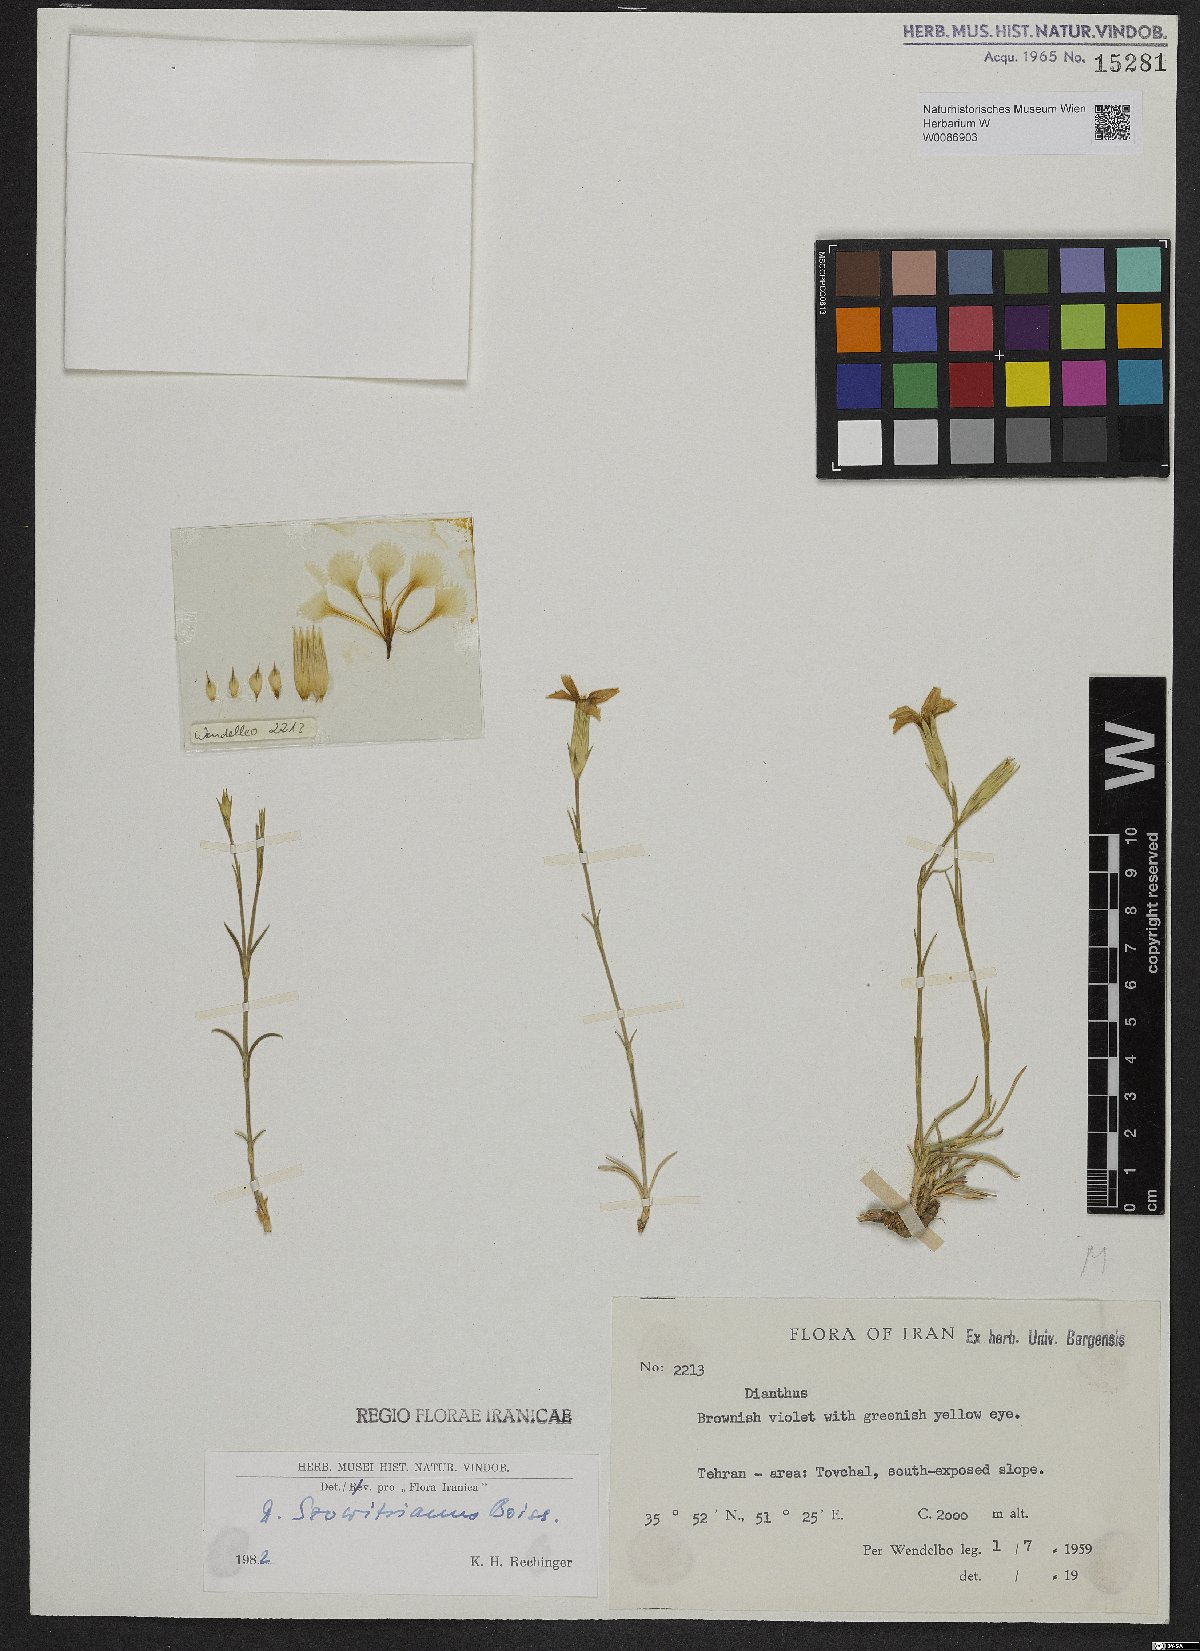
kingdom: Plantae
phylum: Tracheophyta
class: Magnoliopsida
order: Caryophyllales
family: Caryophyllaceae
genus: Dianthus
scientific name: Dianthus szowitsianus
